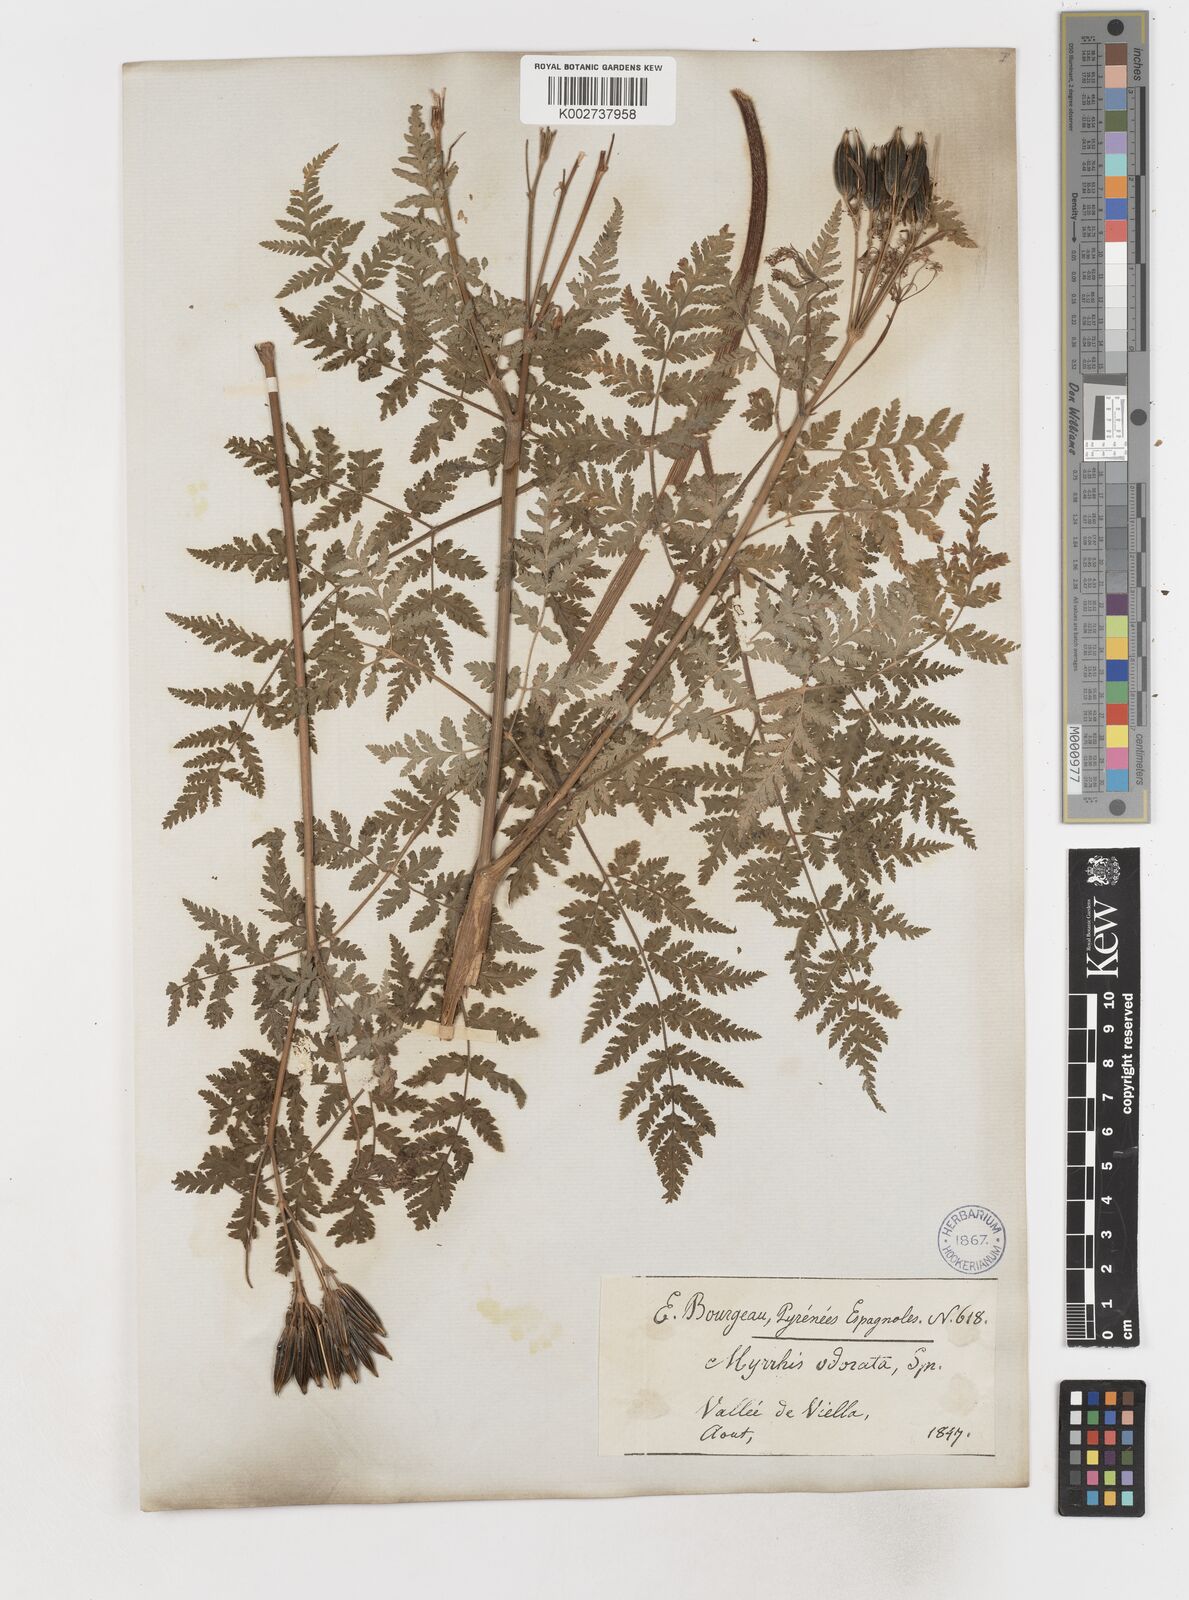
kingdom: Plantae
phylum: Tracheophyta
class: Magnoliopsida
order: Apiales
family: Apiaceae
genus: Myrrhis
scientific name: Myrrhis odorata
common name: Sweet cicely
